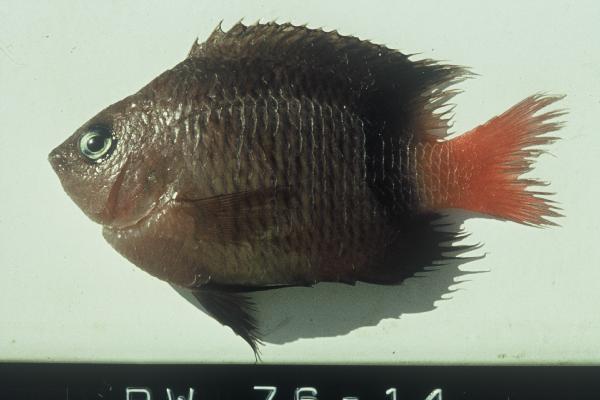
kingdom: Animalia
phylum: Chordata
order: Perciformes
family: Pomacentridae
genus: Plectroglyphidodon
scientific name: Plectroglyphidodon dickii
